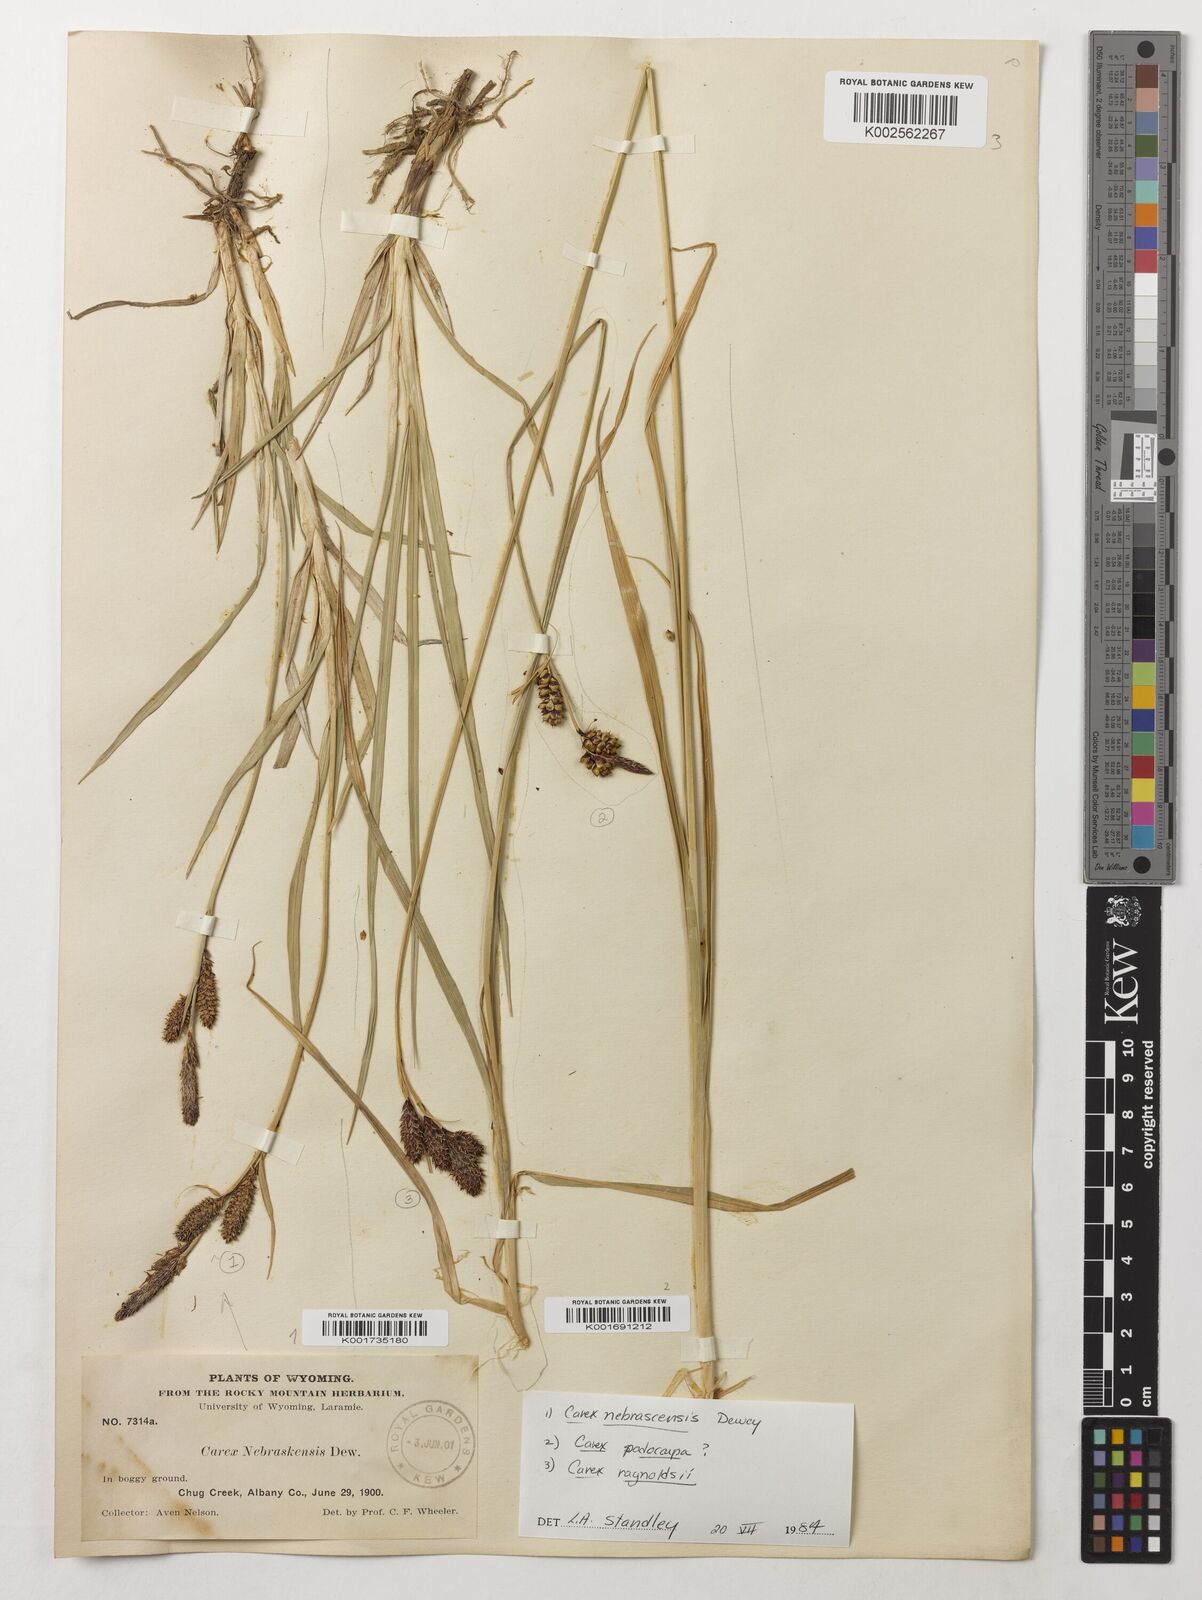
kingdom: Plantae
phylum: Tracheophyta
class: Liliopsida
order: Poales
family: Cyperaceae
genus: Carex
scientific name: Carex nebrascensis
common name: Nebraska sedge
